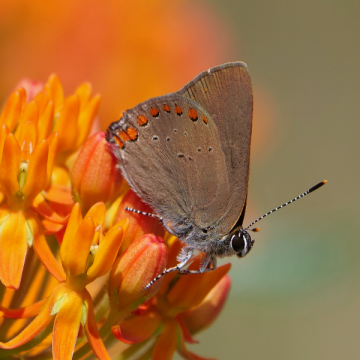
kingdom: Animalia
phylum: Arthropoda
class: Insecta
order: Lepidoptera
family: Lycaenidae
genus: Harkenclenus
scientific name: Harkenclenus titus
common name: Coral Hairstreak
